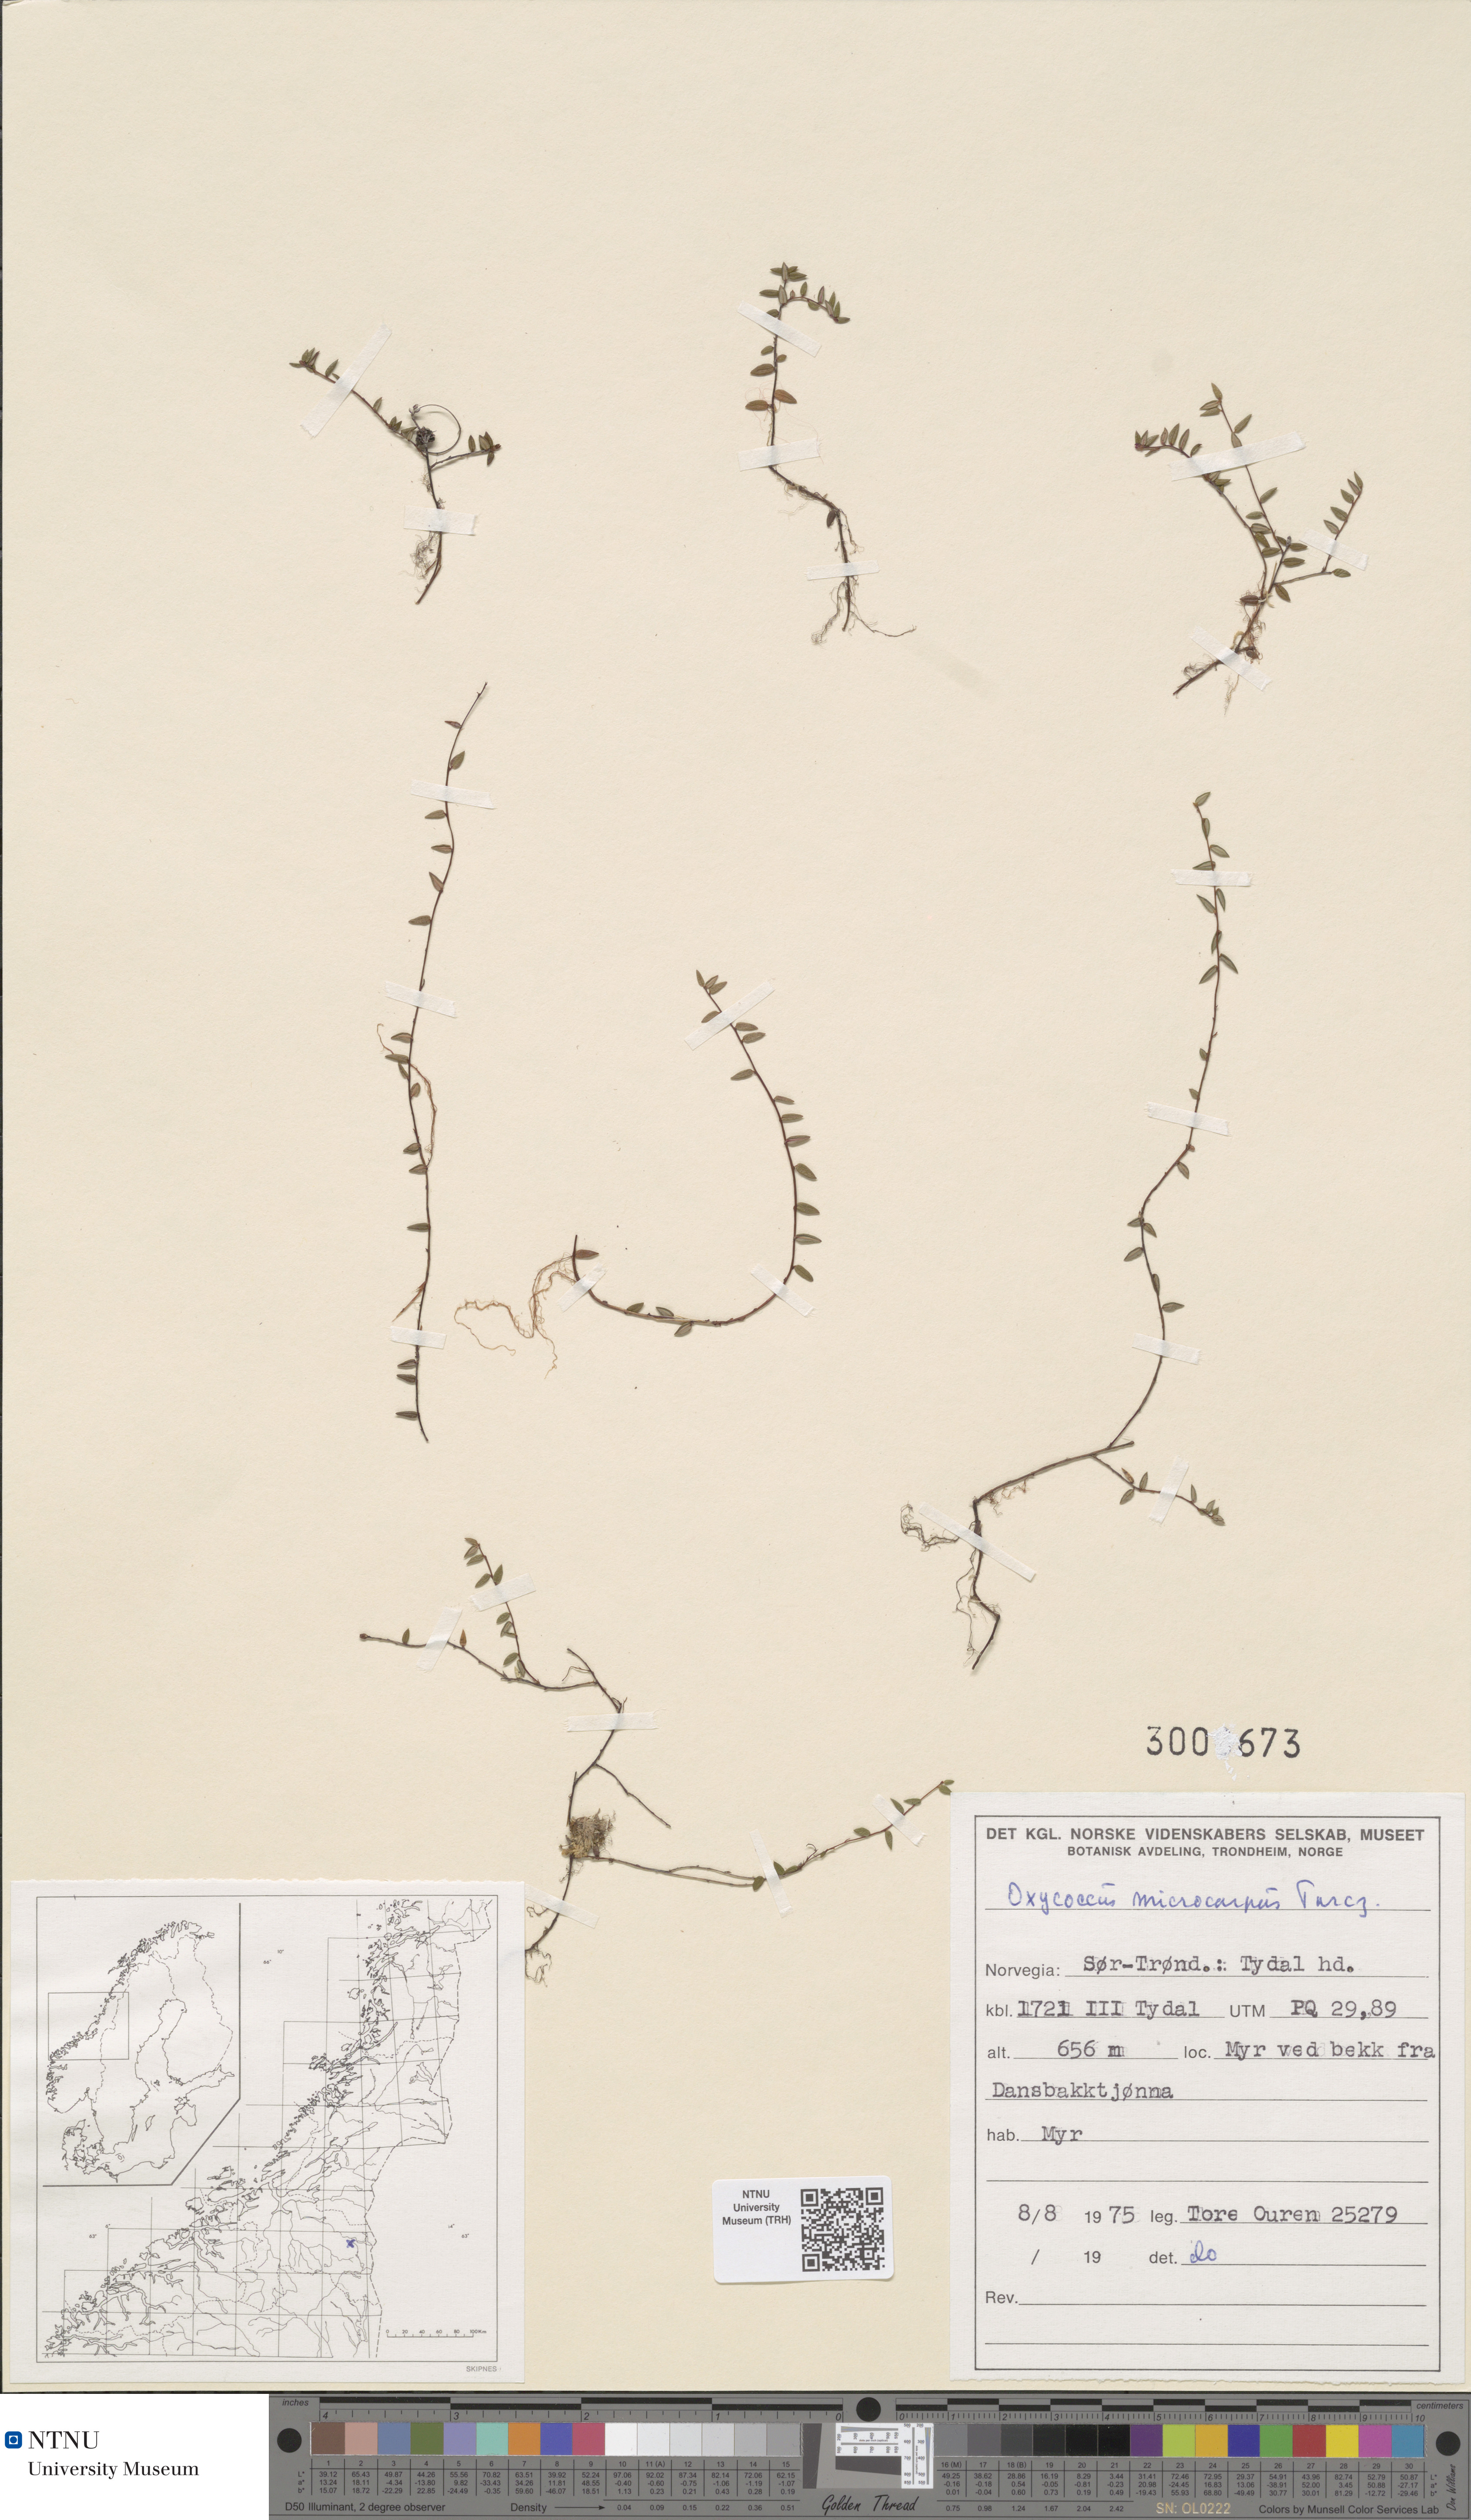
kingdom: Plantae
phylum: Tracheophyta
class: Magnoliopsida
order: Ericales
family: Ericaceae
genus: Vaccinium
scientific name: Vaccinium microcarpum
